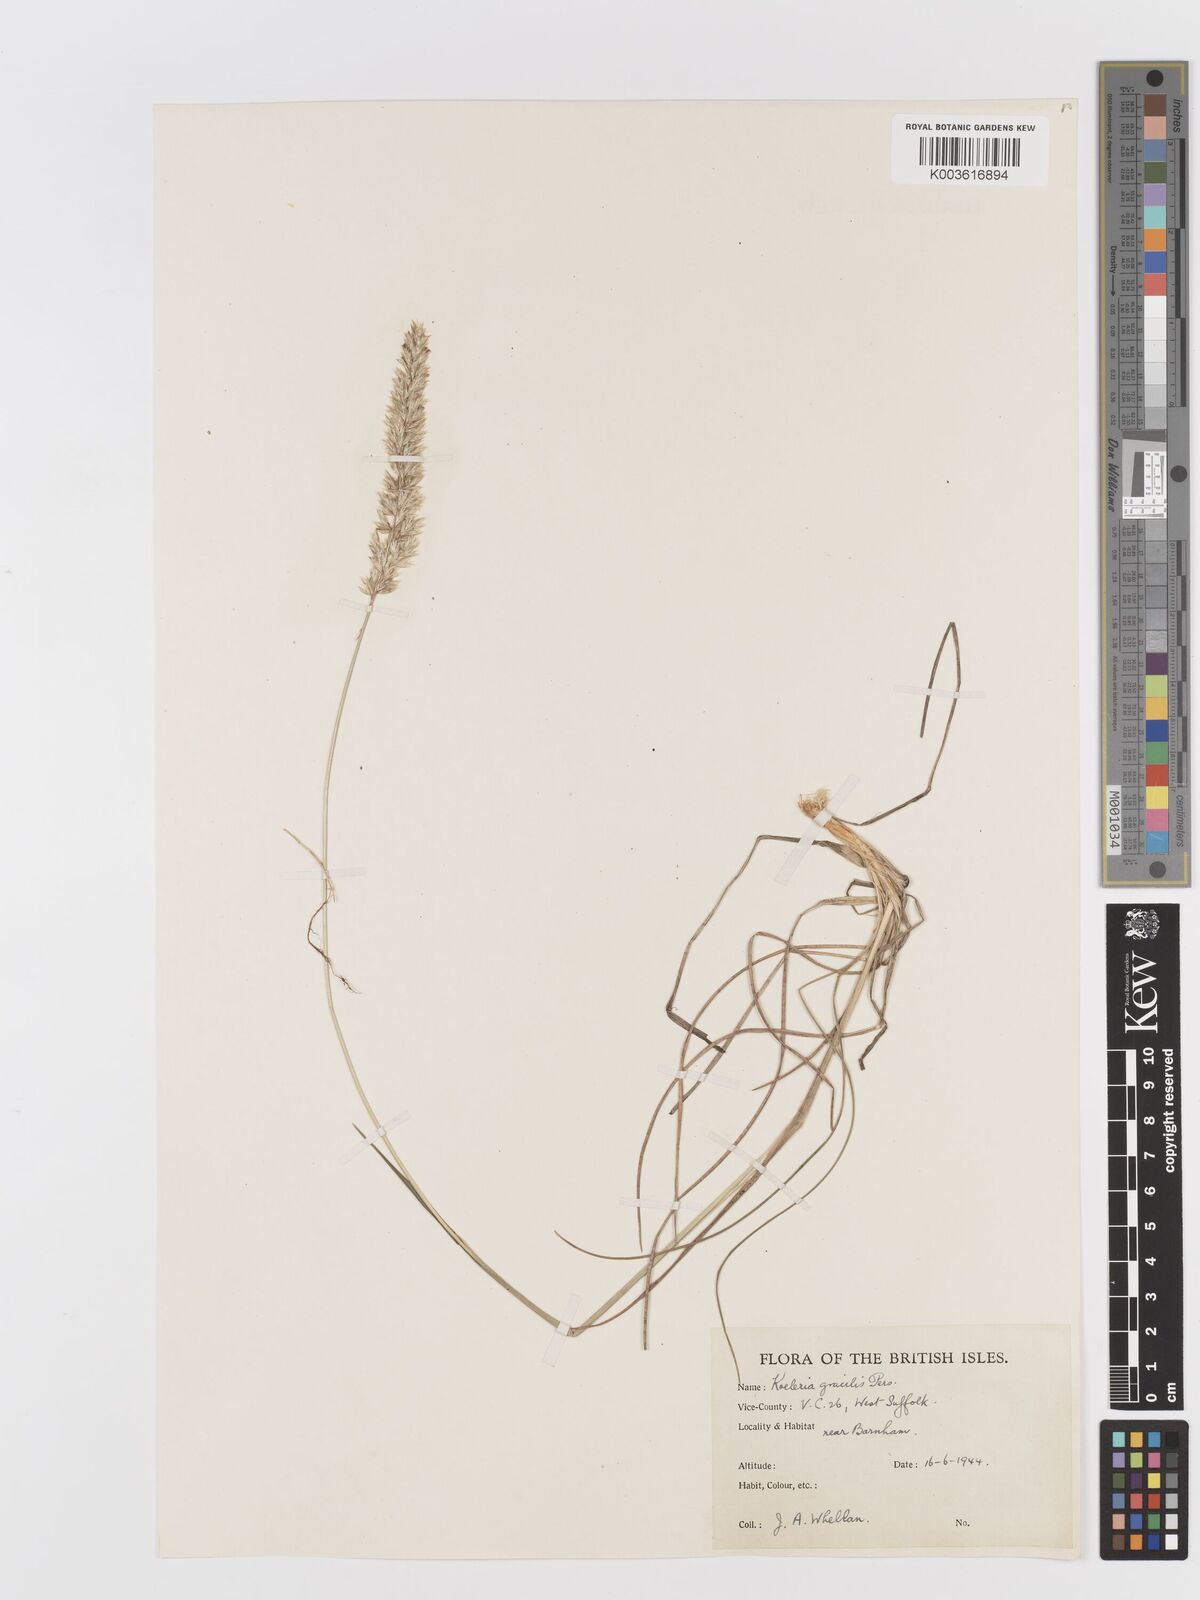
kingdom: Plantae
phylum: Tracheophyta
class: Liliopsida
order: Poales
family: Poaceae
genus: Koeleria
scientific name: Koeleria macrantha
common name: Crested hair-grass
